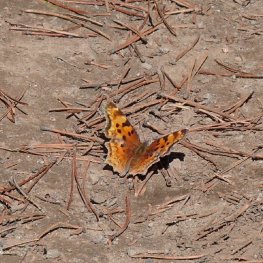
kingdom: Animalia
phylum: Arthropoda
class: Insecta
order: Lepidoptera
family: Nymphalidae
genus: Polygonia
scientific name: Polygonia gracilis
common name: Hoary Comma
